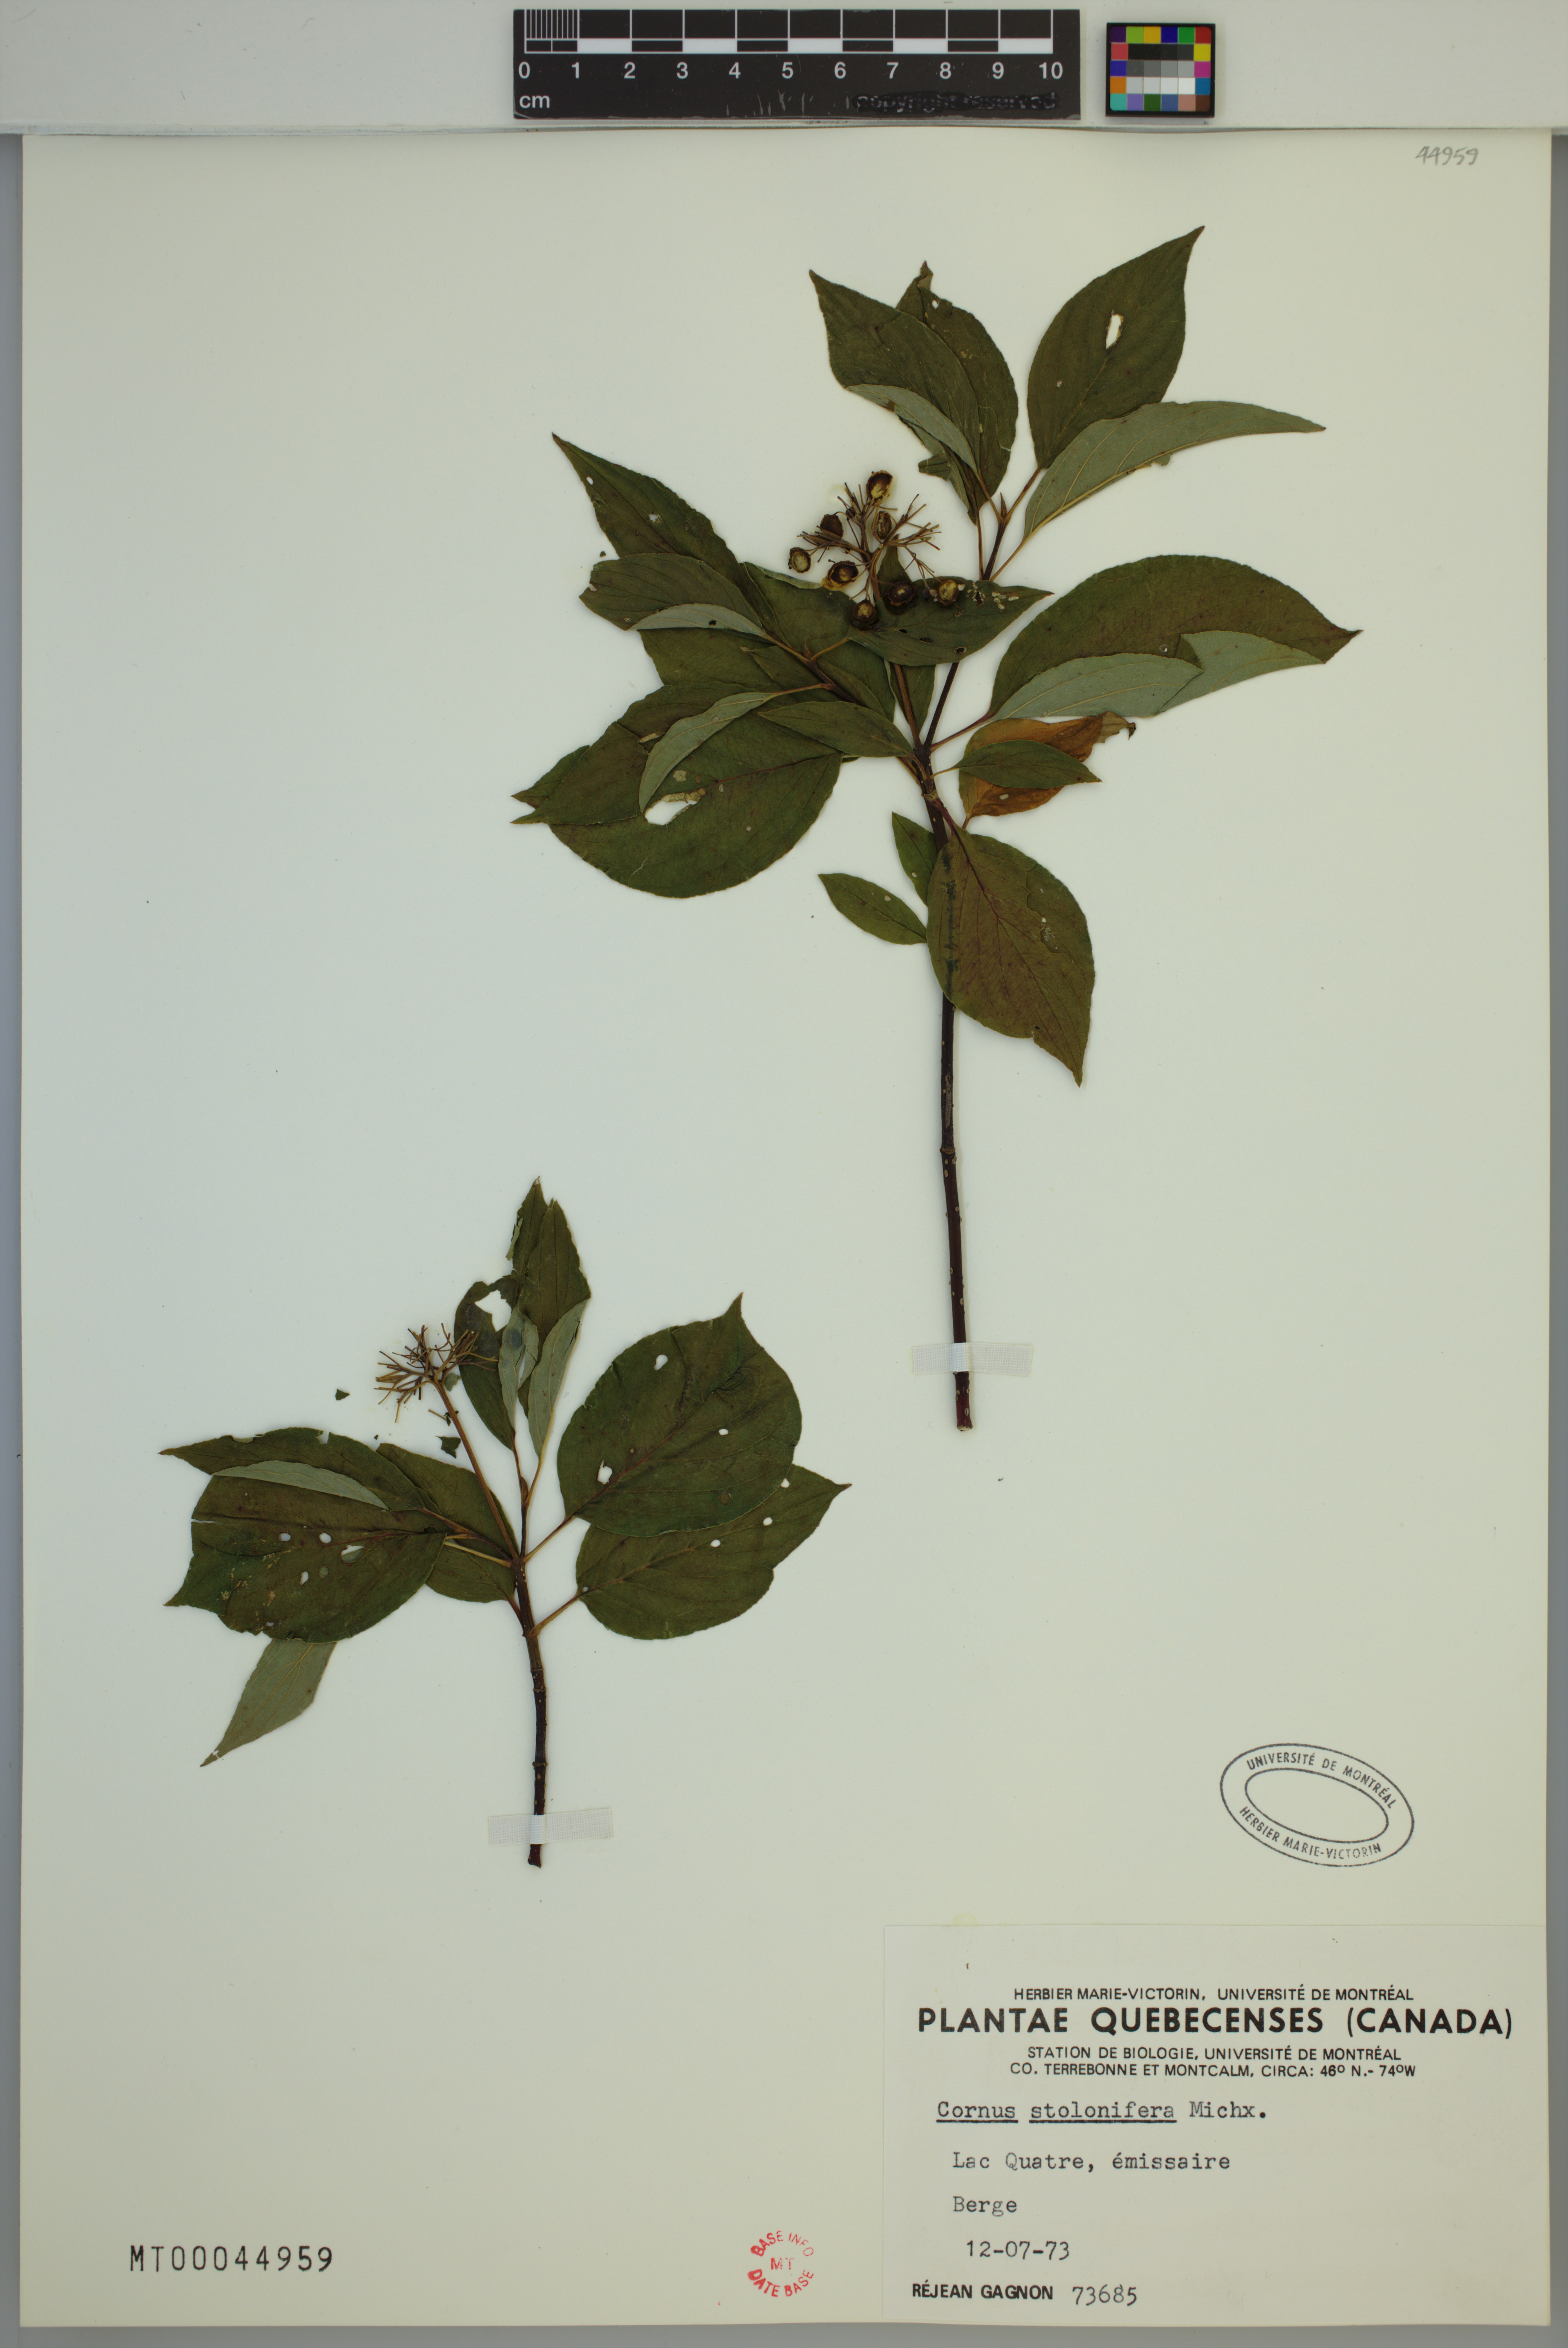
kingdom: Plantae
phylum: Tracheophyta
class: Magnoliopsida
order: Cornales
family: Cornaceae
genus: Cornus
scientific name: Cornus sericea
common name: Red-osier dogwood
